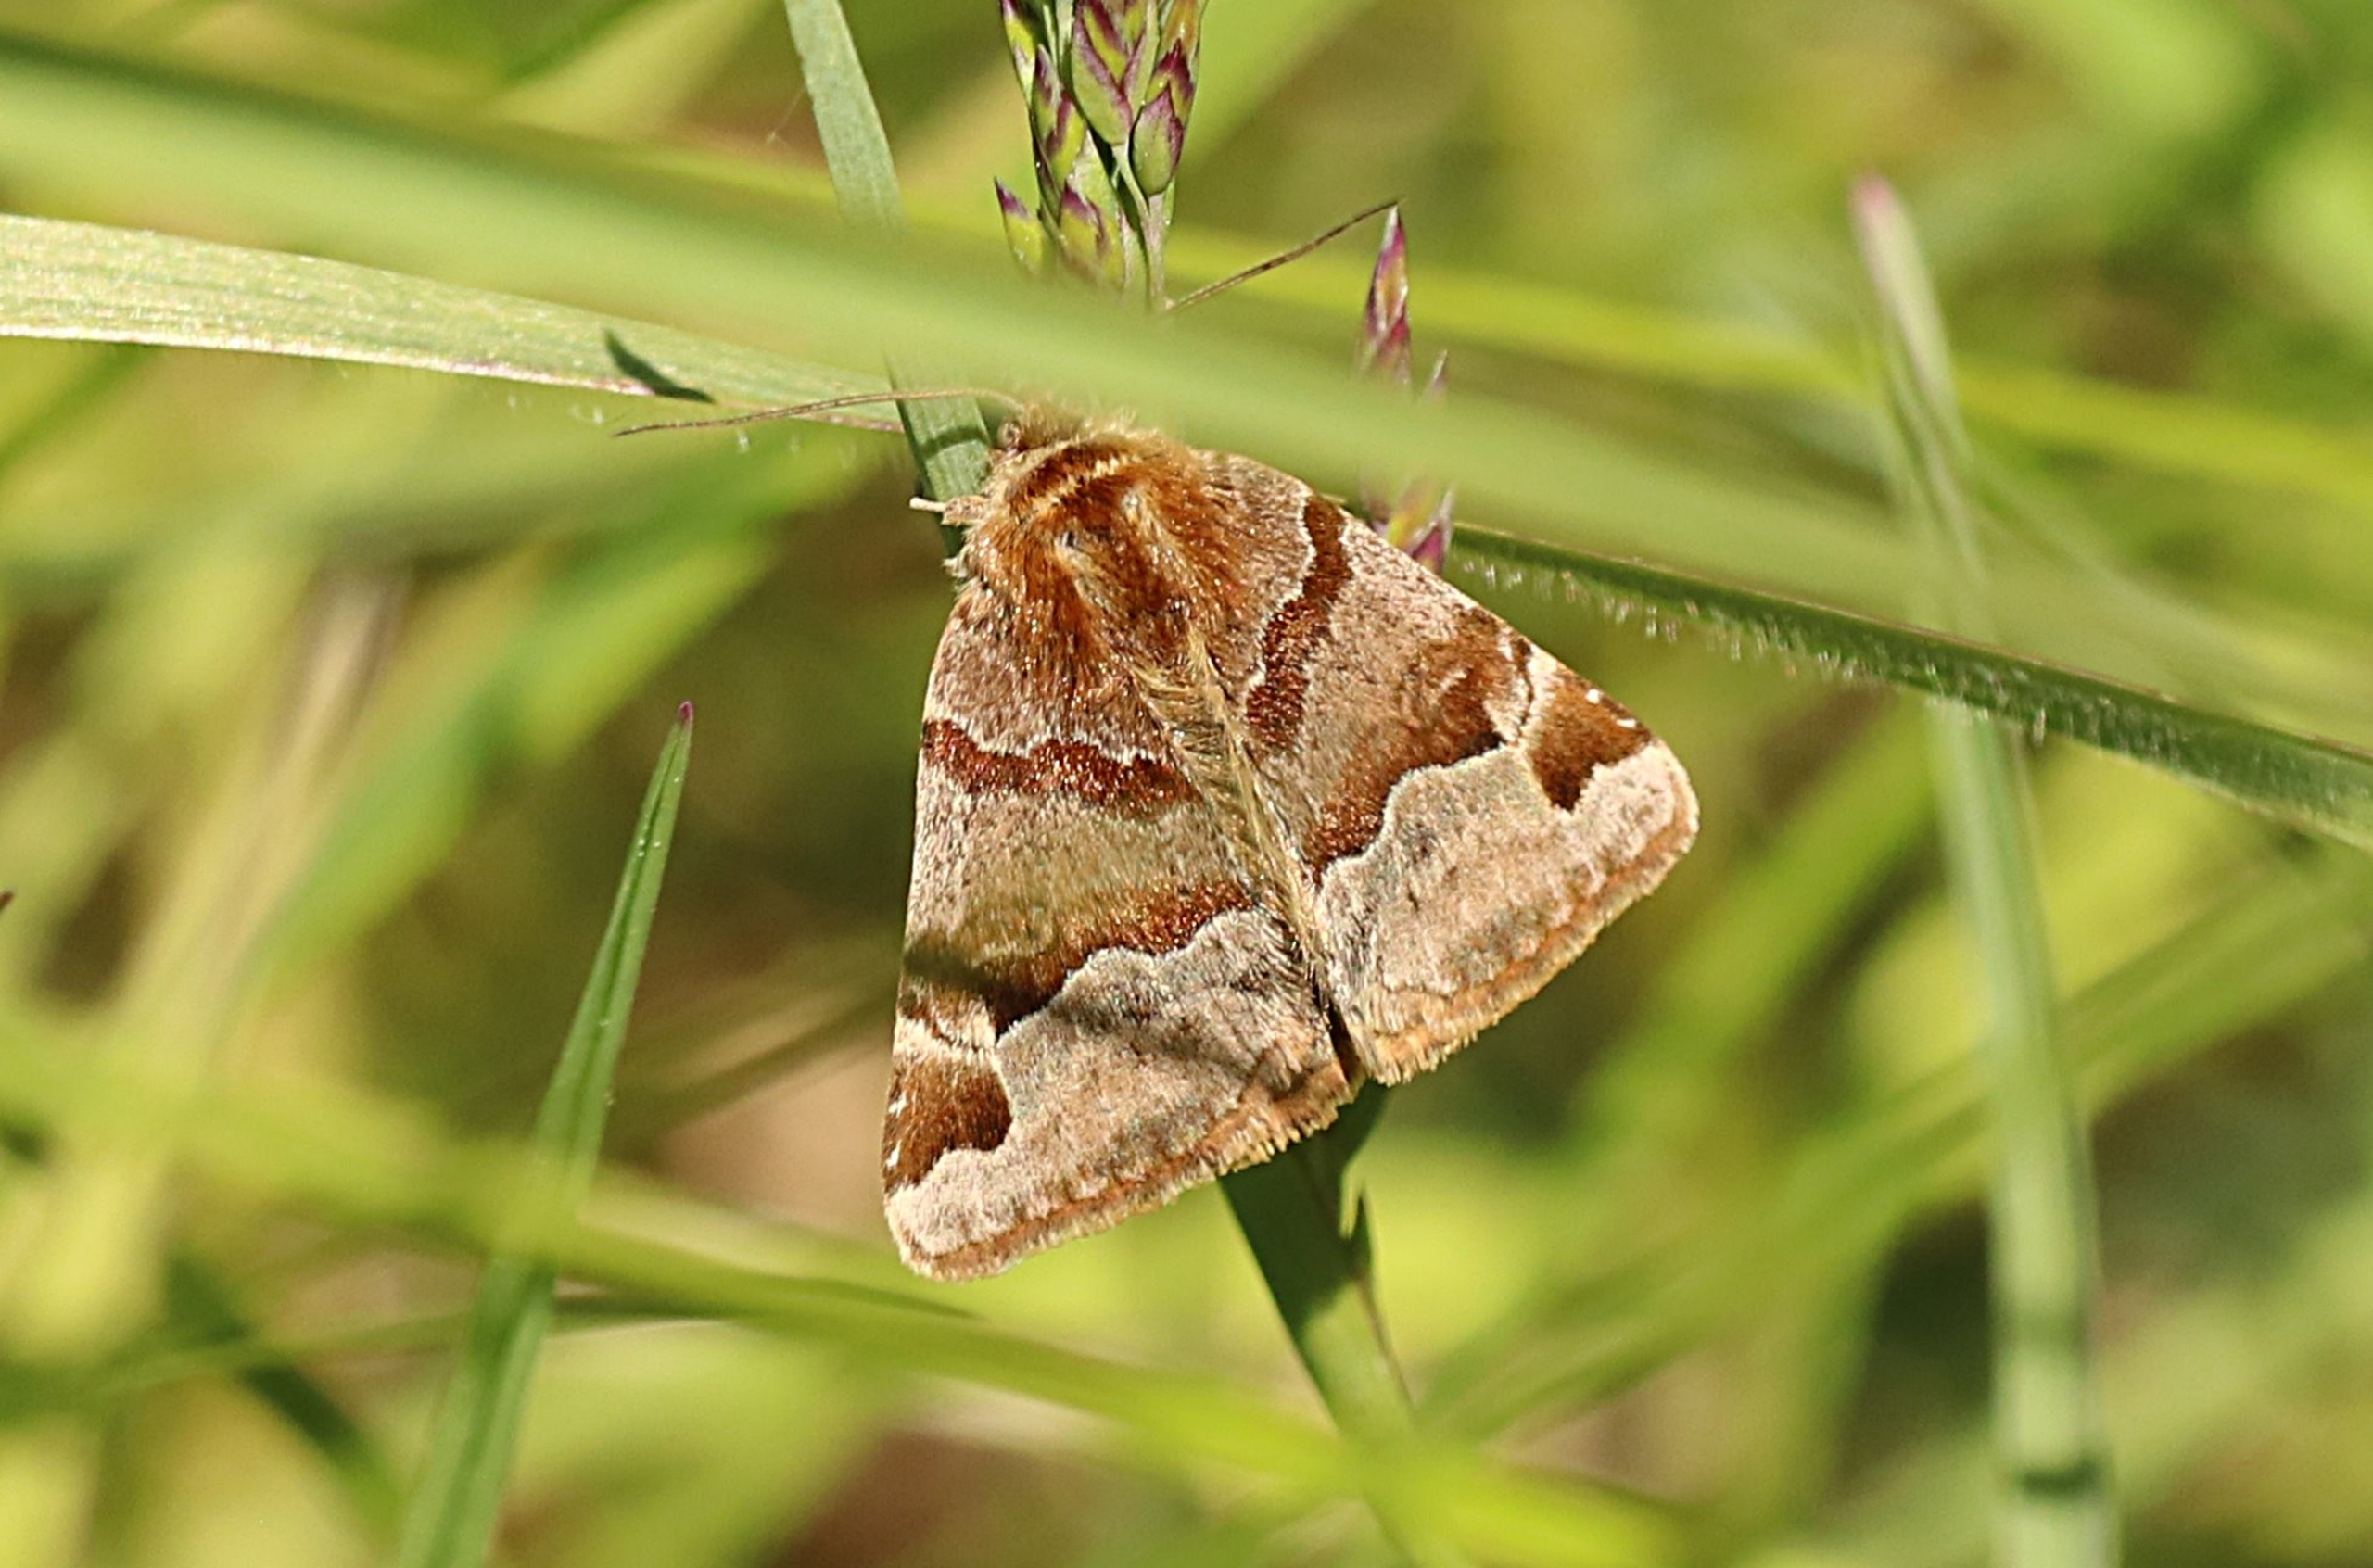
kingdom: Animalia
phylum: Arthropoda
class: Insecta
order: Lepidoptera
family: Erebidae
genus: Euclidia
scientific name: Euclidia glyphica
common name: Brun kløverugle
